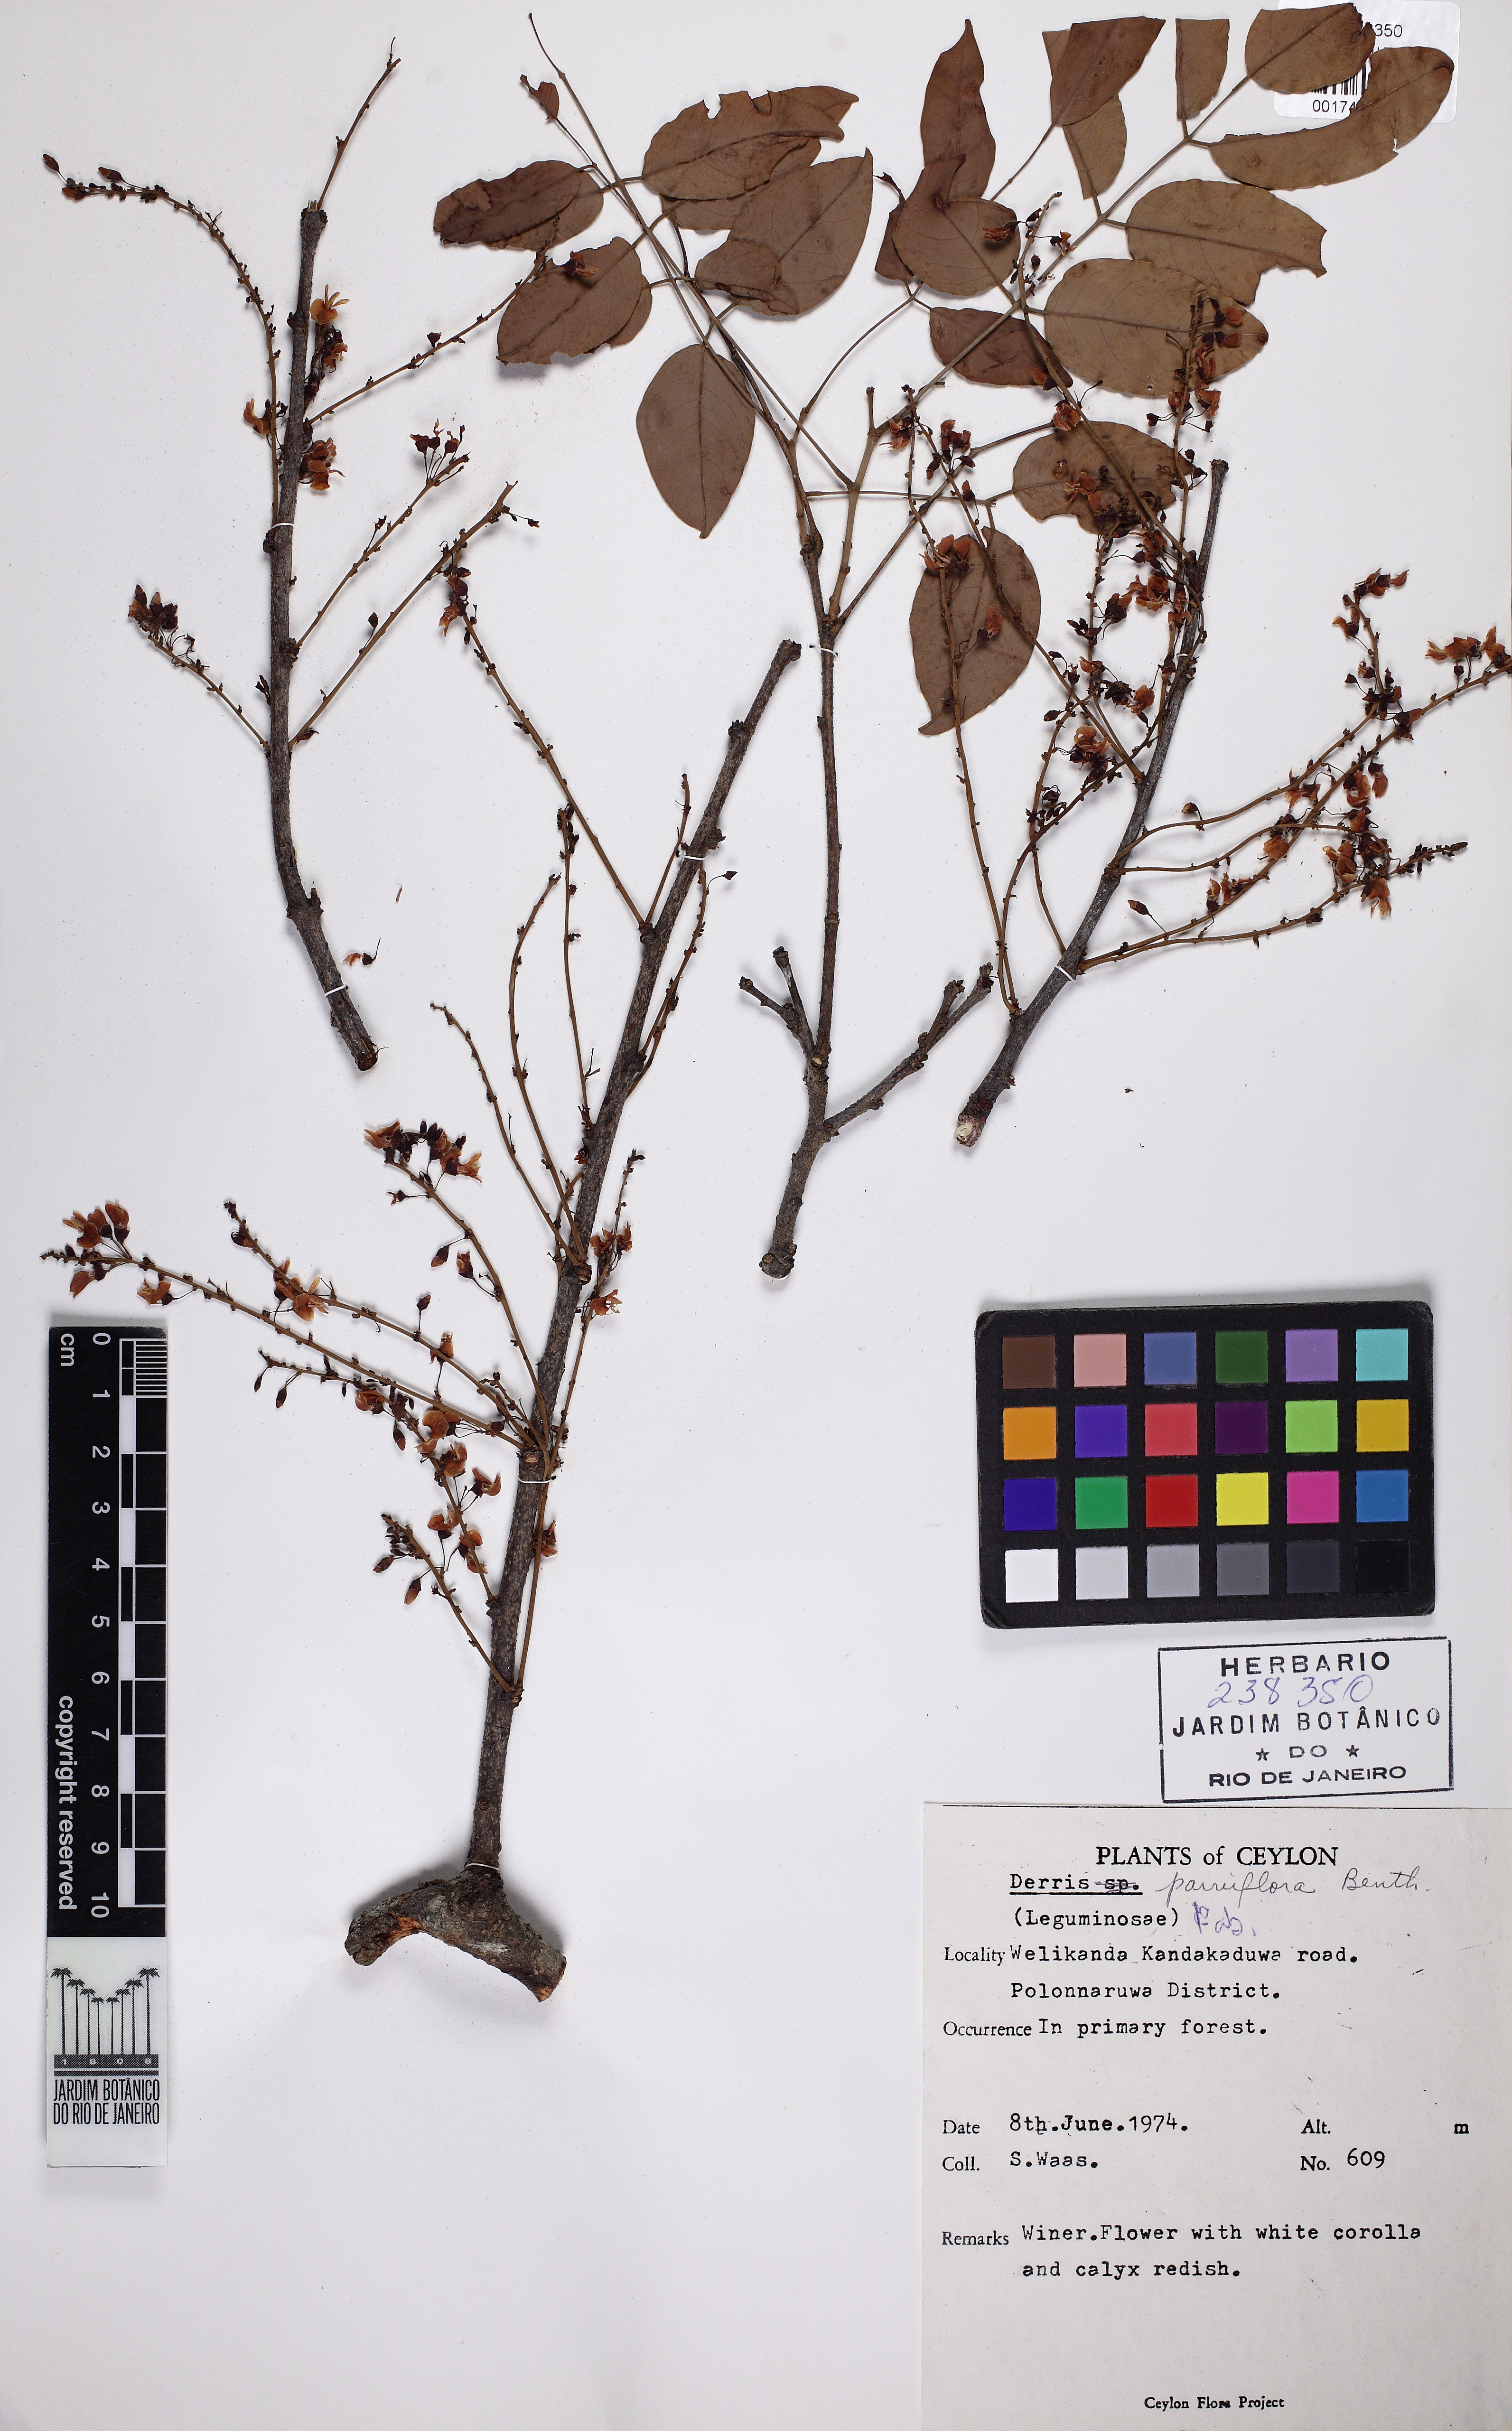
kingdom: Plantae
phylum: Tracheophyta
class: Magnoliopsida
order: Fabales
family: Fabaceae
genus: Derris
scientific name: Derris parviflora
